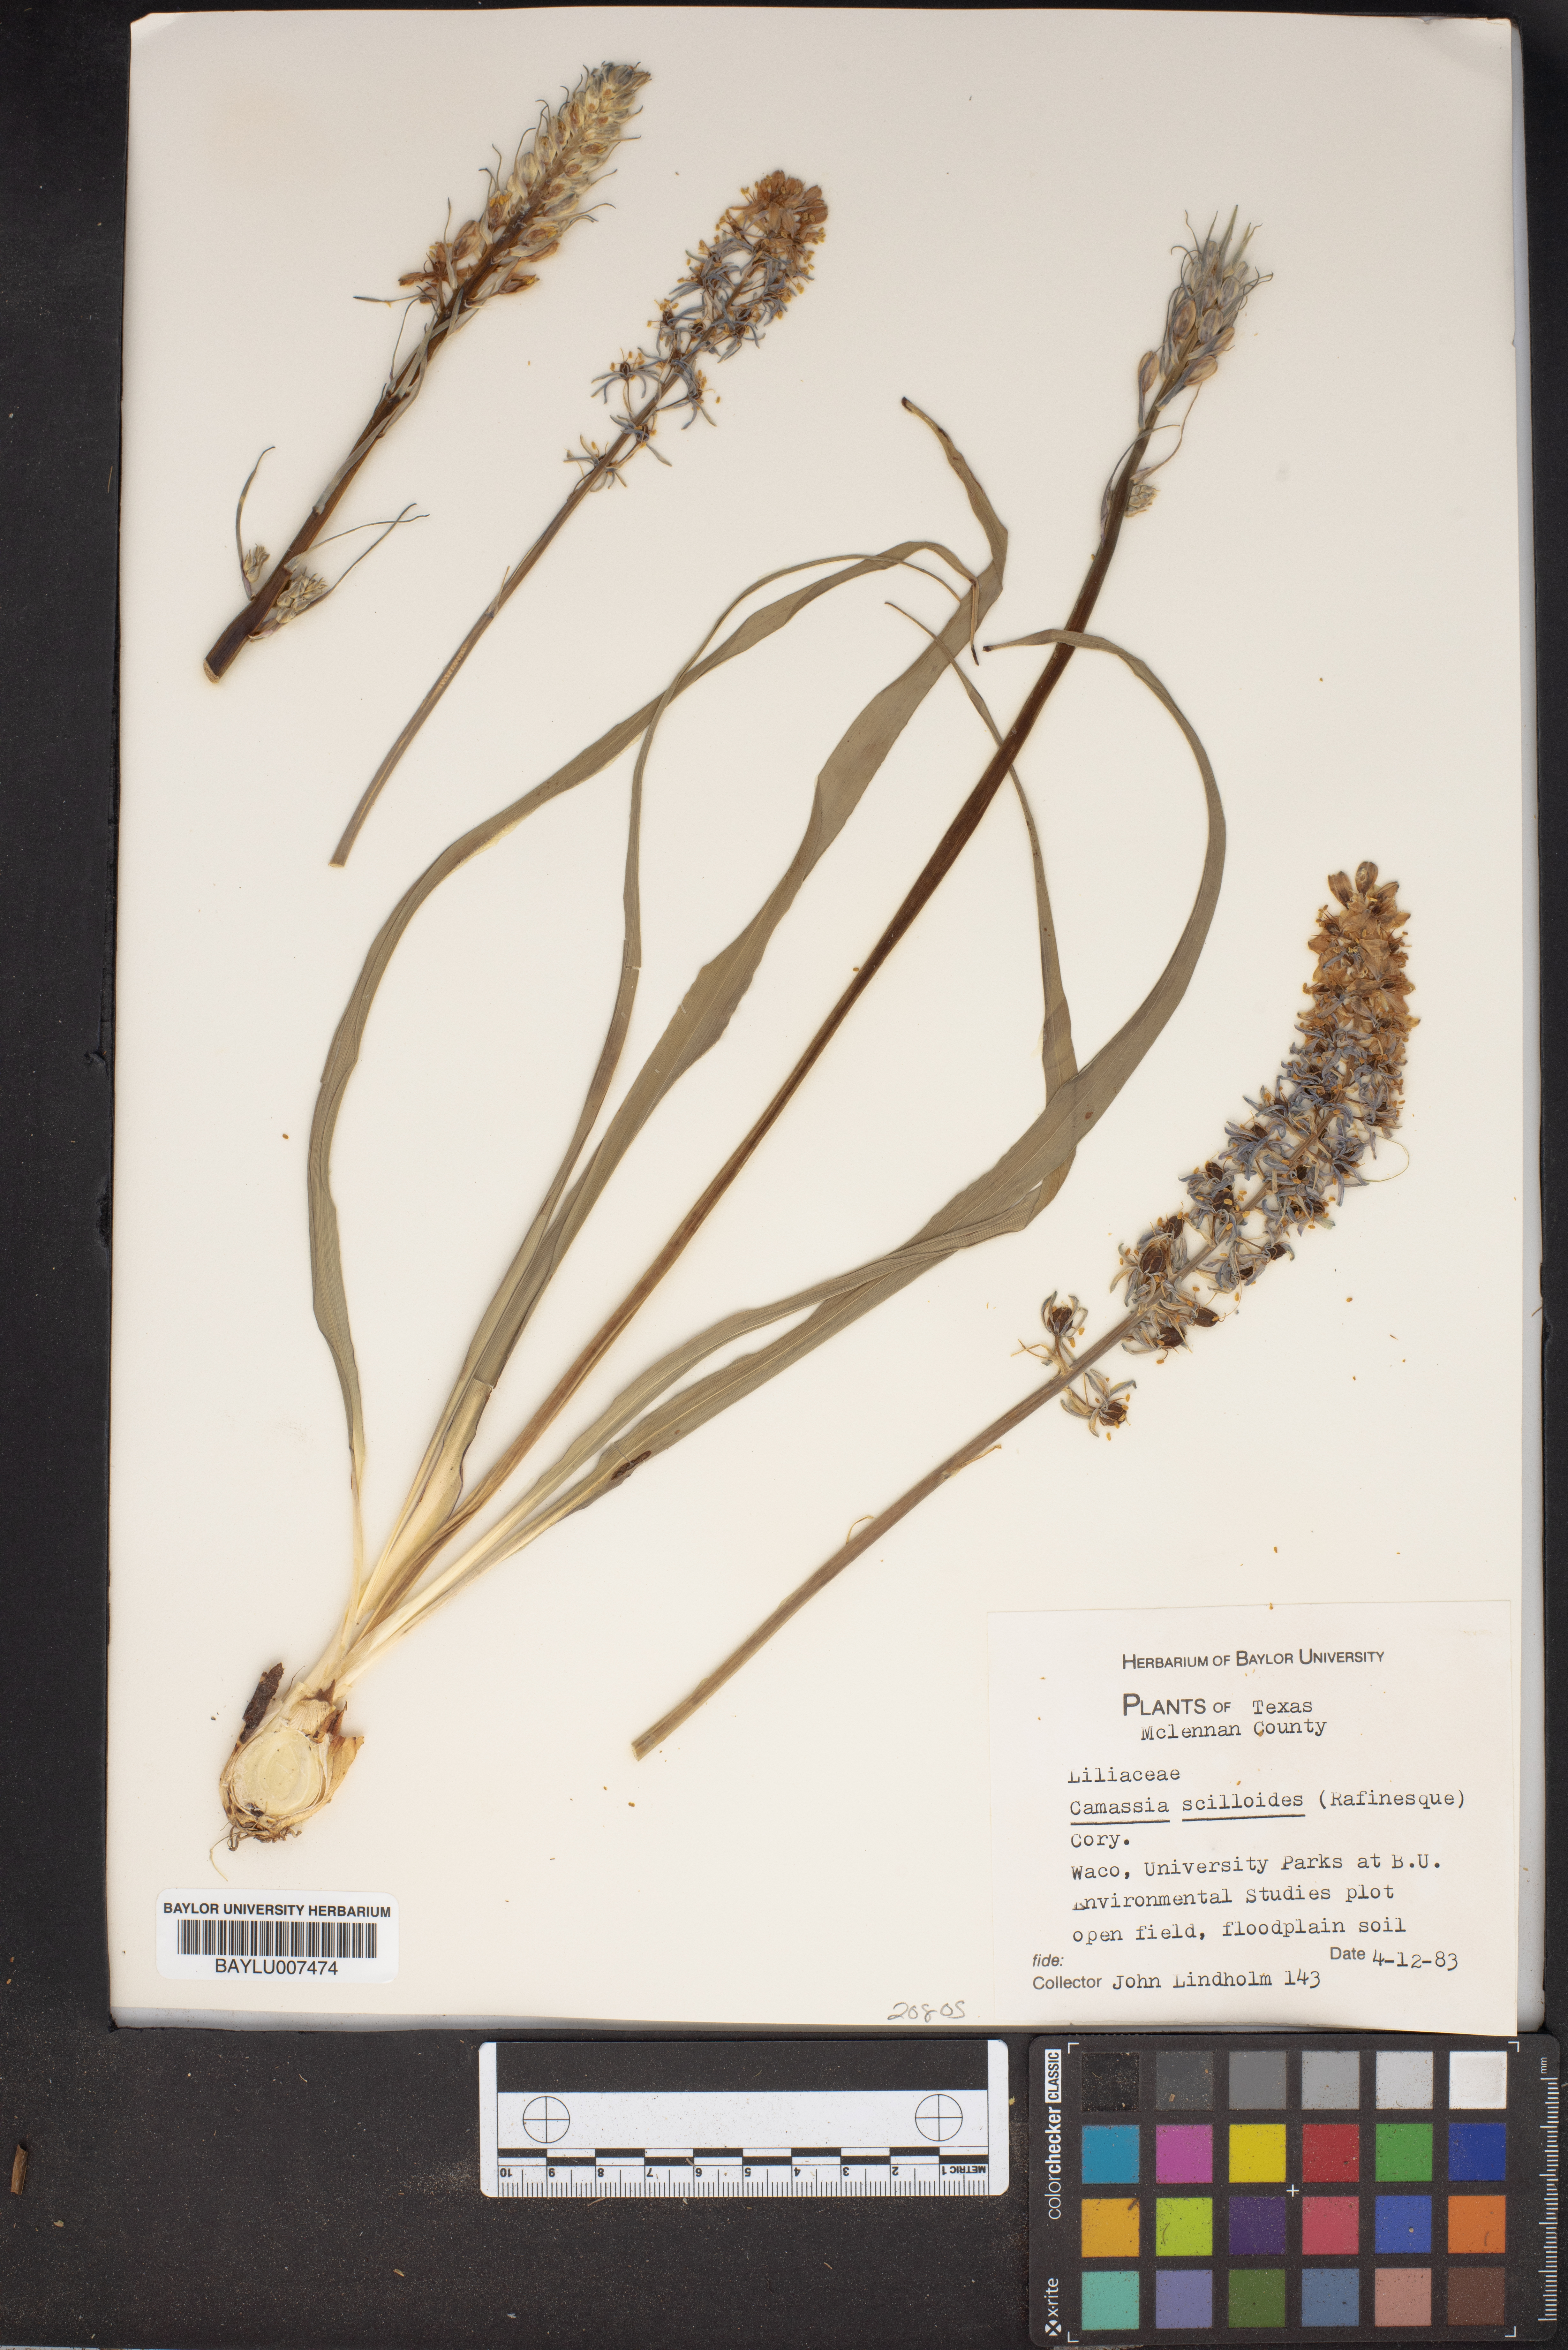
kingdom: Plantae
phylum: Tracheophyta
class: Liliopsida
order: Asparagales
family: Asparagaceae
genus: Camassia
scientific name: Camassia scilloides
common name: Wild hyacinth
